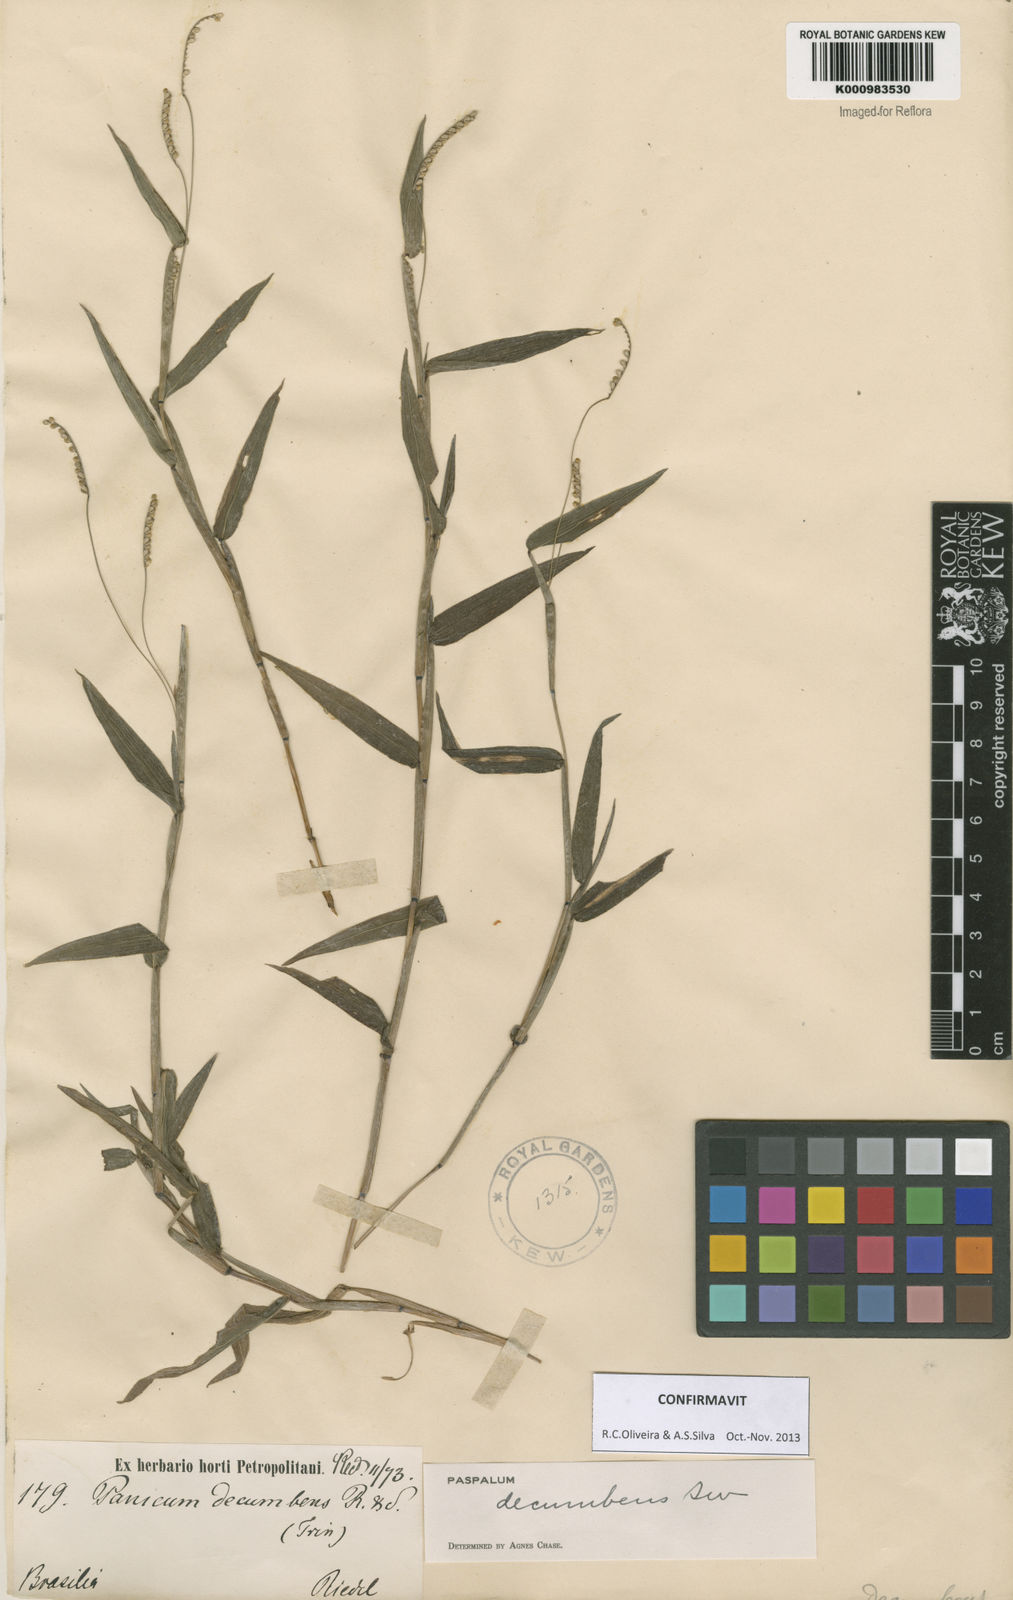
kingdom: Plantae
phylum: Tracheophyta
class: Liliopsida
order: Poales
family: Poaceae
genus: Paspalum
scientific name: Paspalum decumbens
